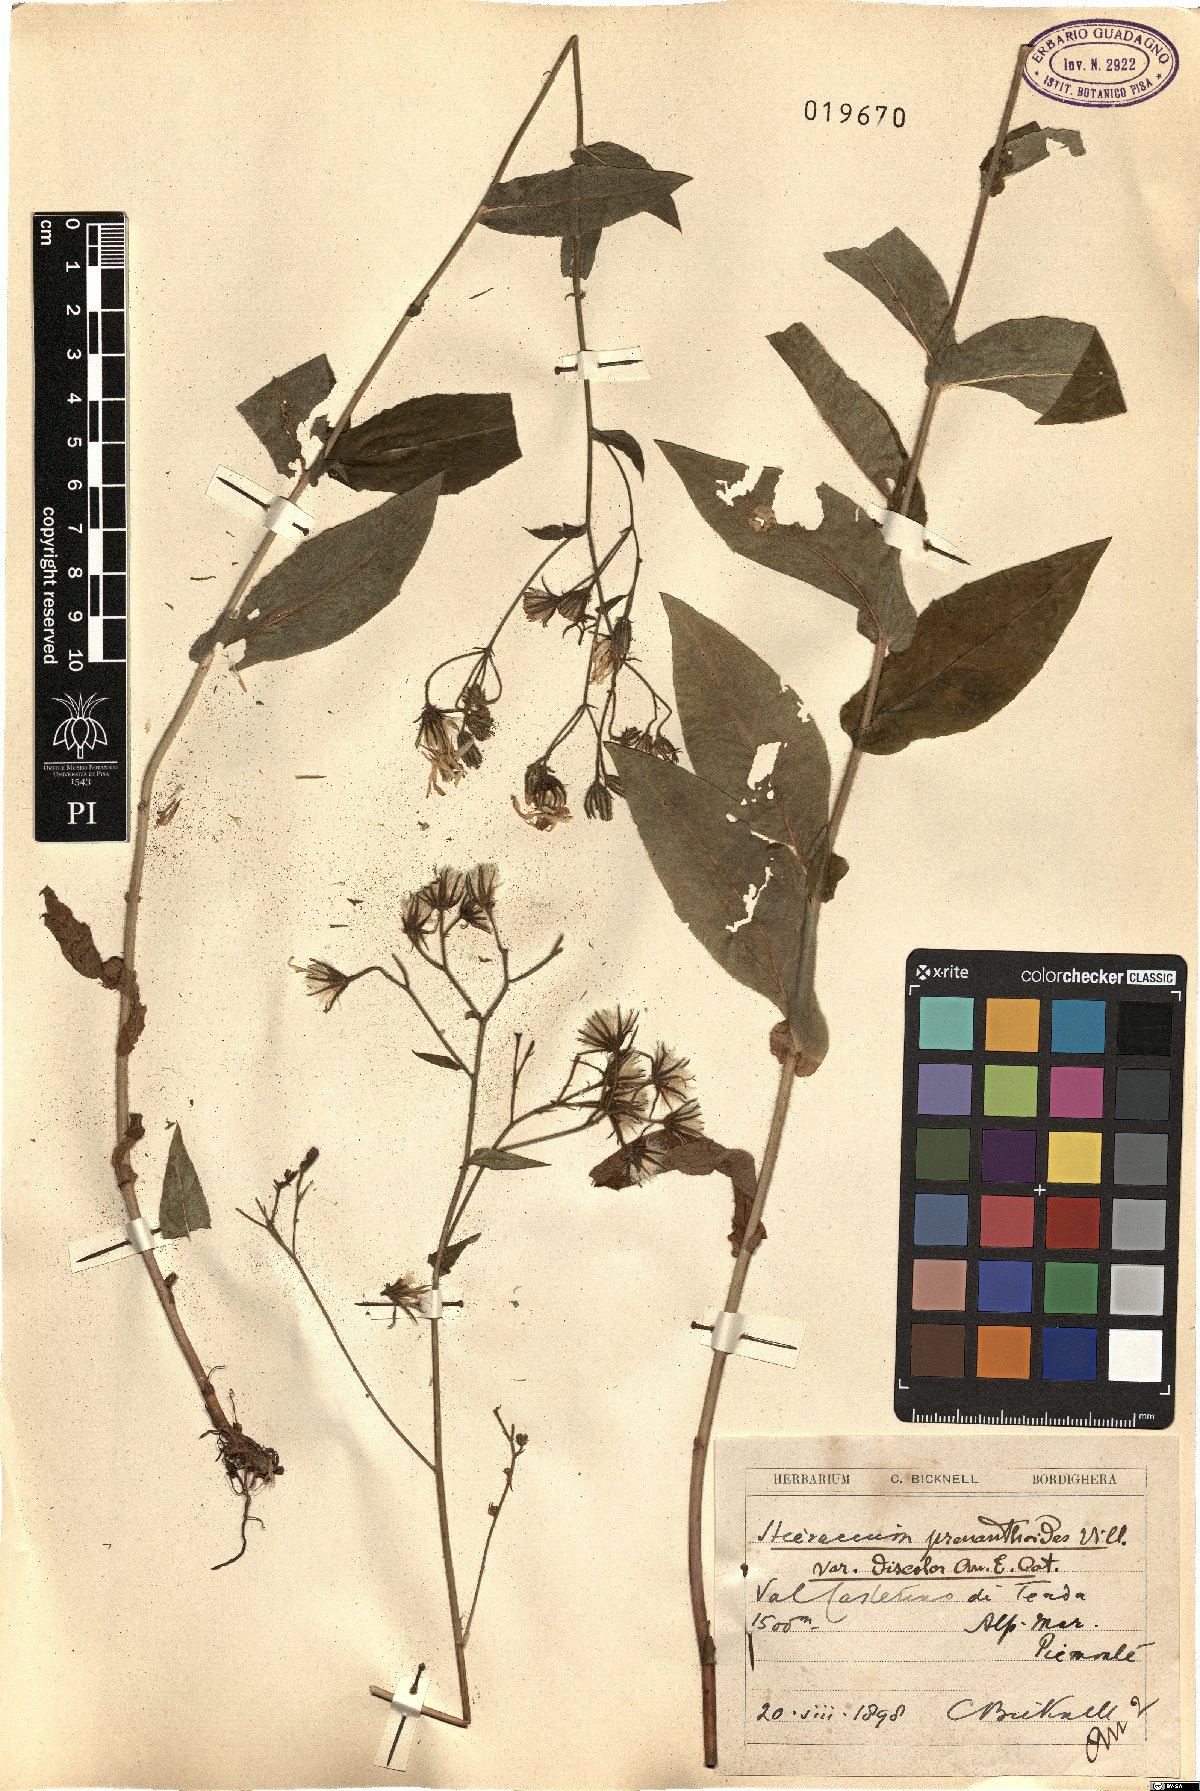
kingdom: Plantae
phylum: Tracheophyta
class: Magnoliopsida
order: Asterales
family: Asteraceae
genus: Hieracium
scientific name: Hieracium prenanthoides
